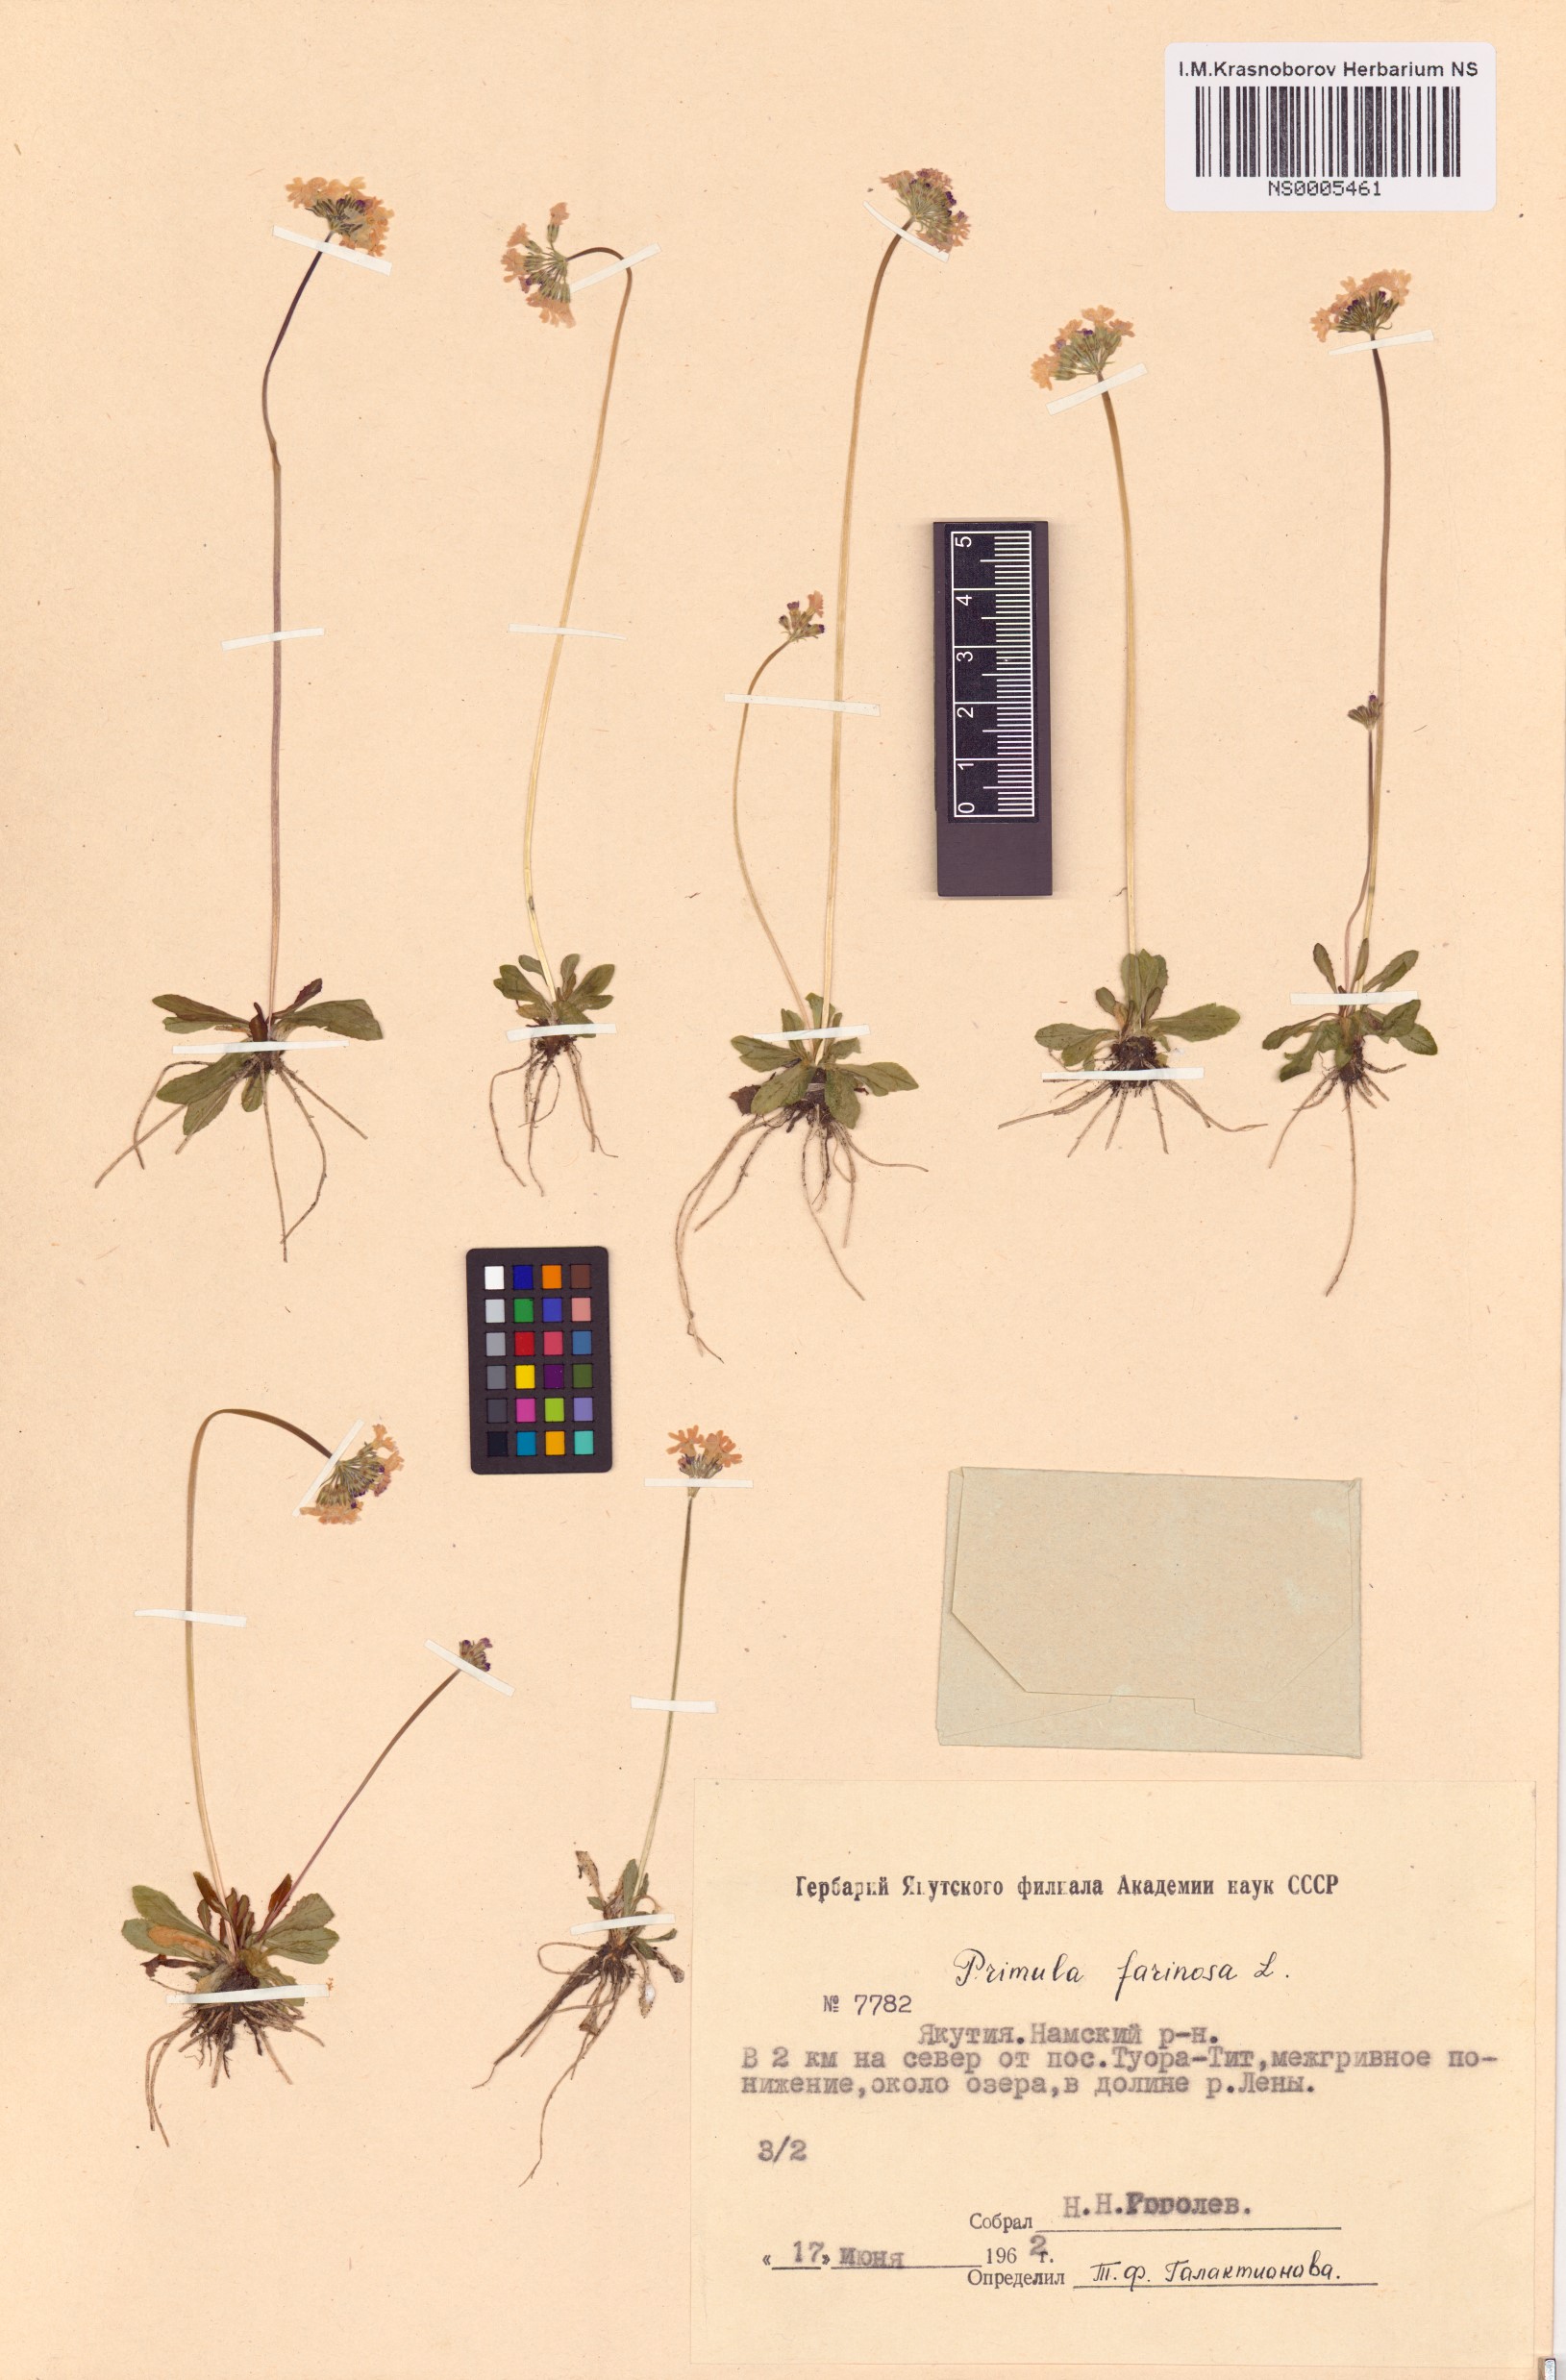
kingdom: Plantae
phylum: Tracheophyta
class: Magnoliopsida
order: Ericales
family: Primulaceae
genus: Primula
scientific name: Primula farinosa
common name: Bird's-eye primrose
